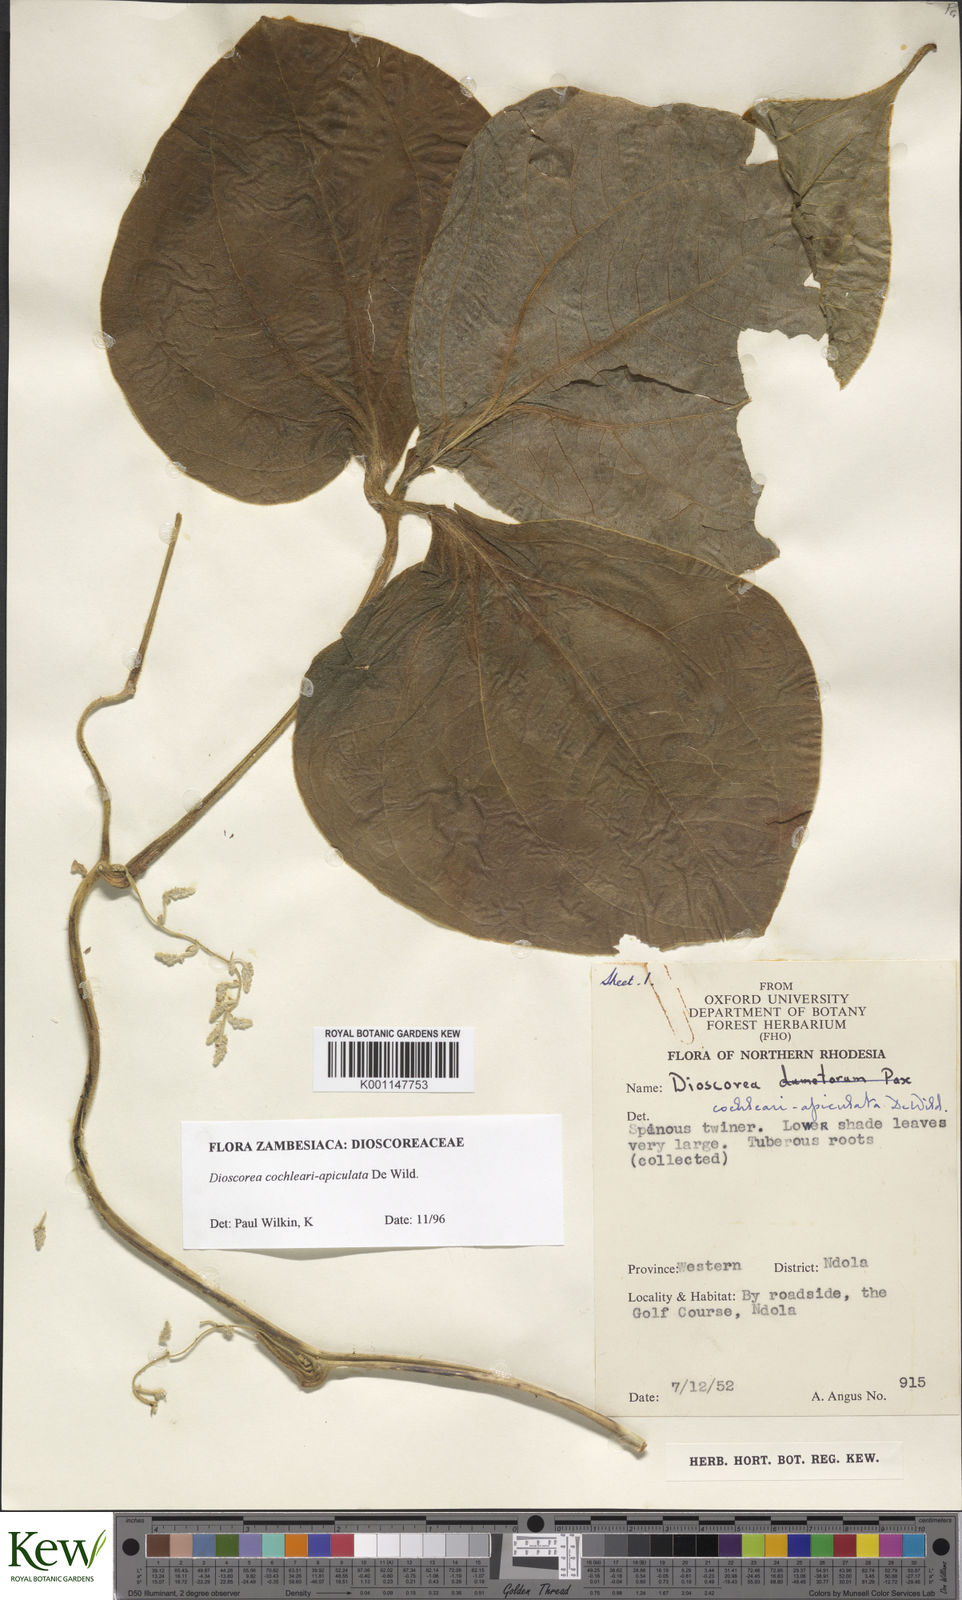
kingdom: Plantae
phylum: Tracheophyta
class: Liliopsida
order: Dioscoreales
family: Dioscoreaceae
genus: Dioscorea
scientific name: Dioscorea cochleariapiculata
